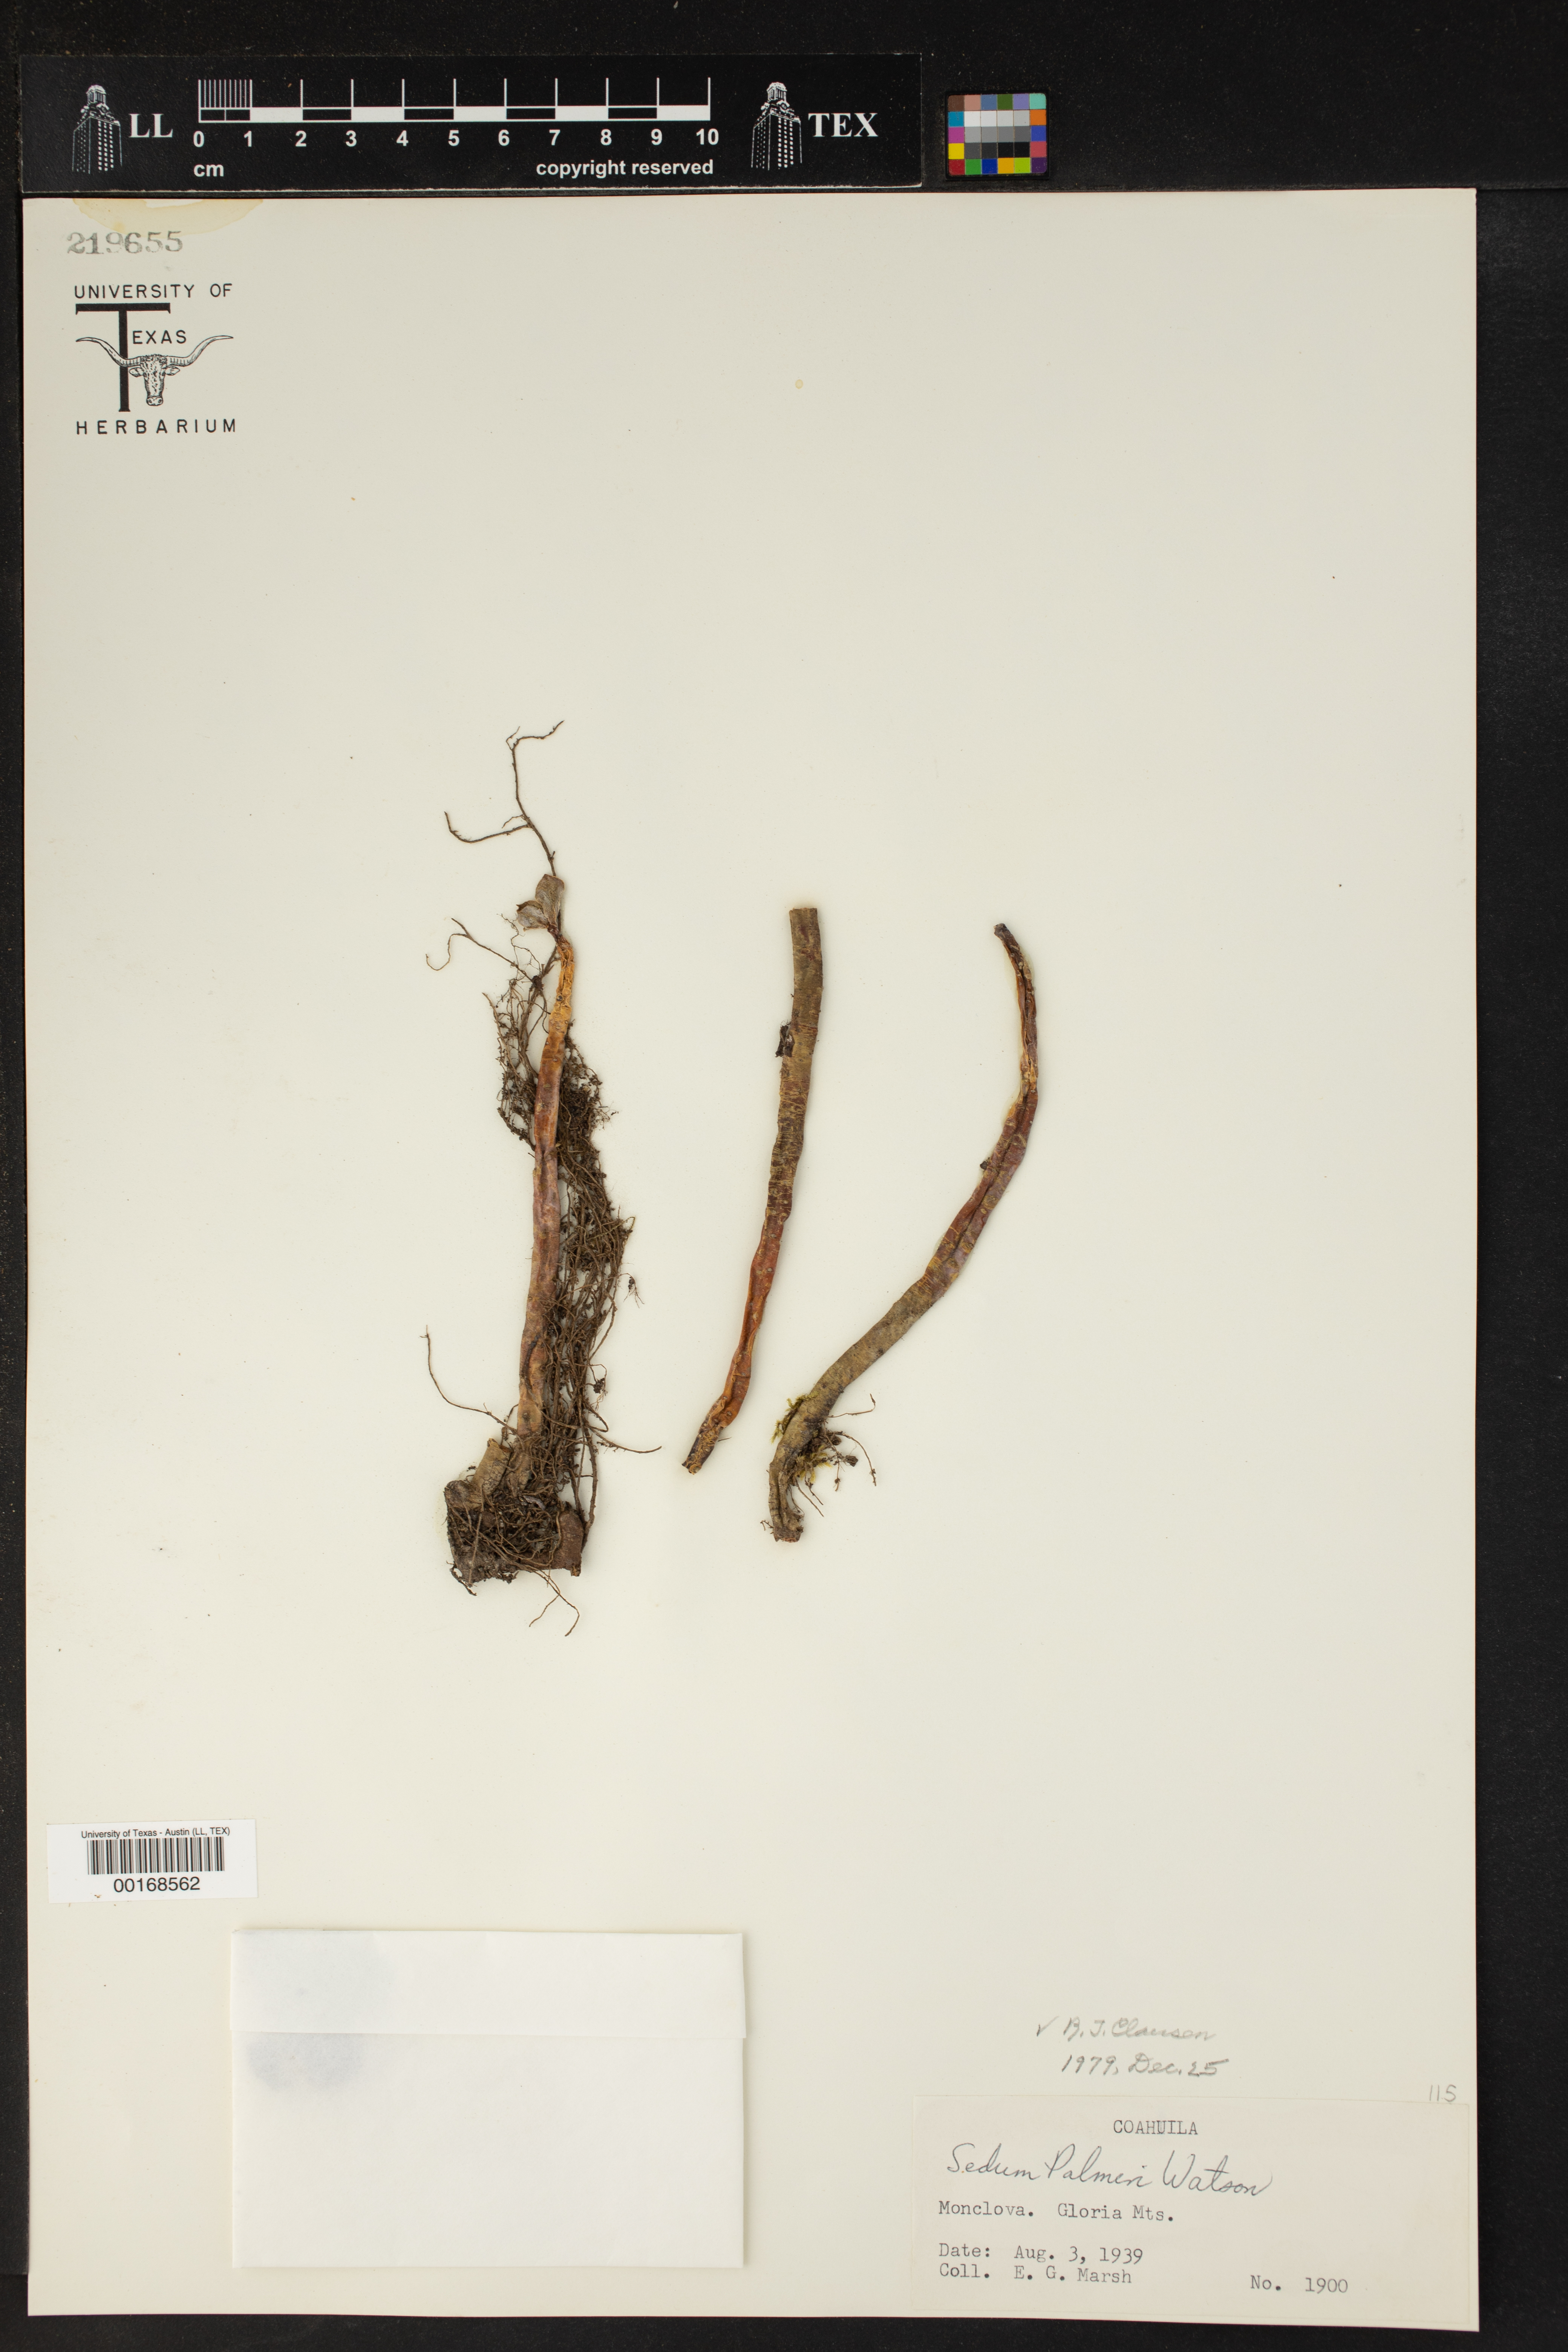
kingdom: Plantae
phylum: Tracheophyta
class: Magnoliopsida
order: Saxifragales
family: Crassulaceae
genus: Sedum
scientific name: Sedum palmeri
